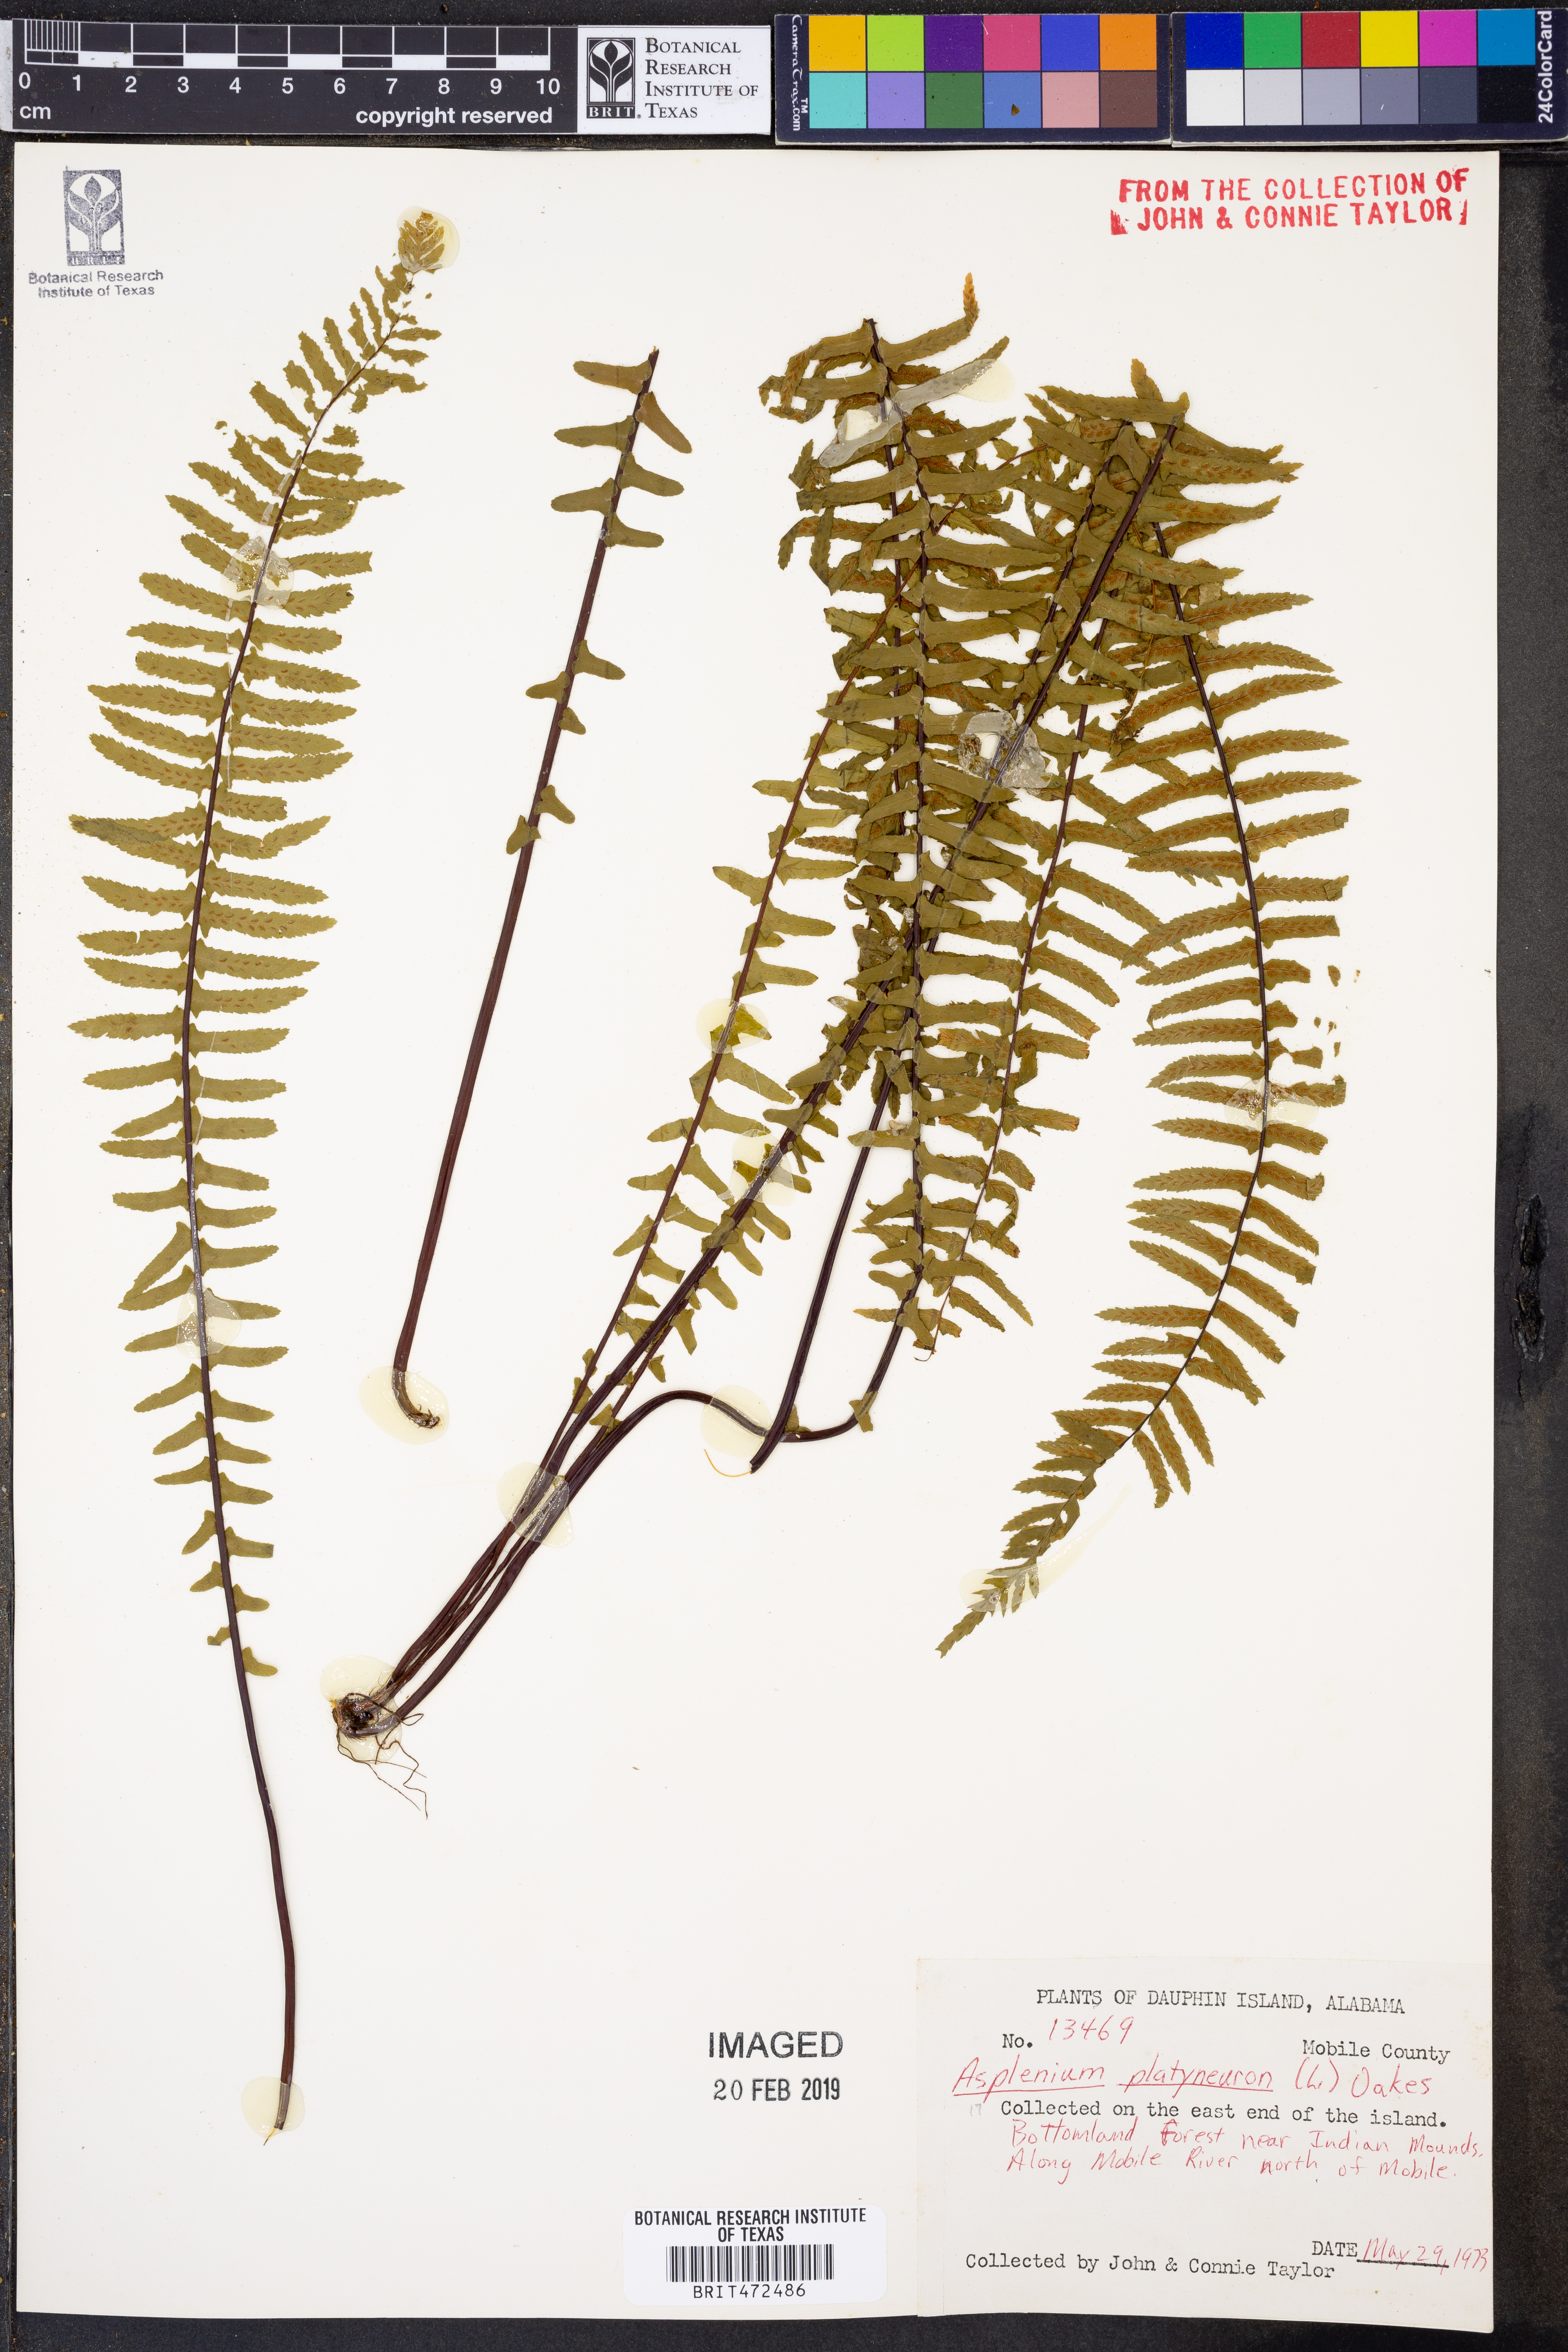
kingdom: Plantae
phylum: Tracheophyta
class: Polypodiopsida
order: Polypodiales
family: Aspleniaceae
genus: Asplenium
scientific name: Asplenium platyneuron
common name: Ebony spleenwort
